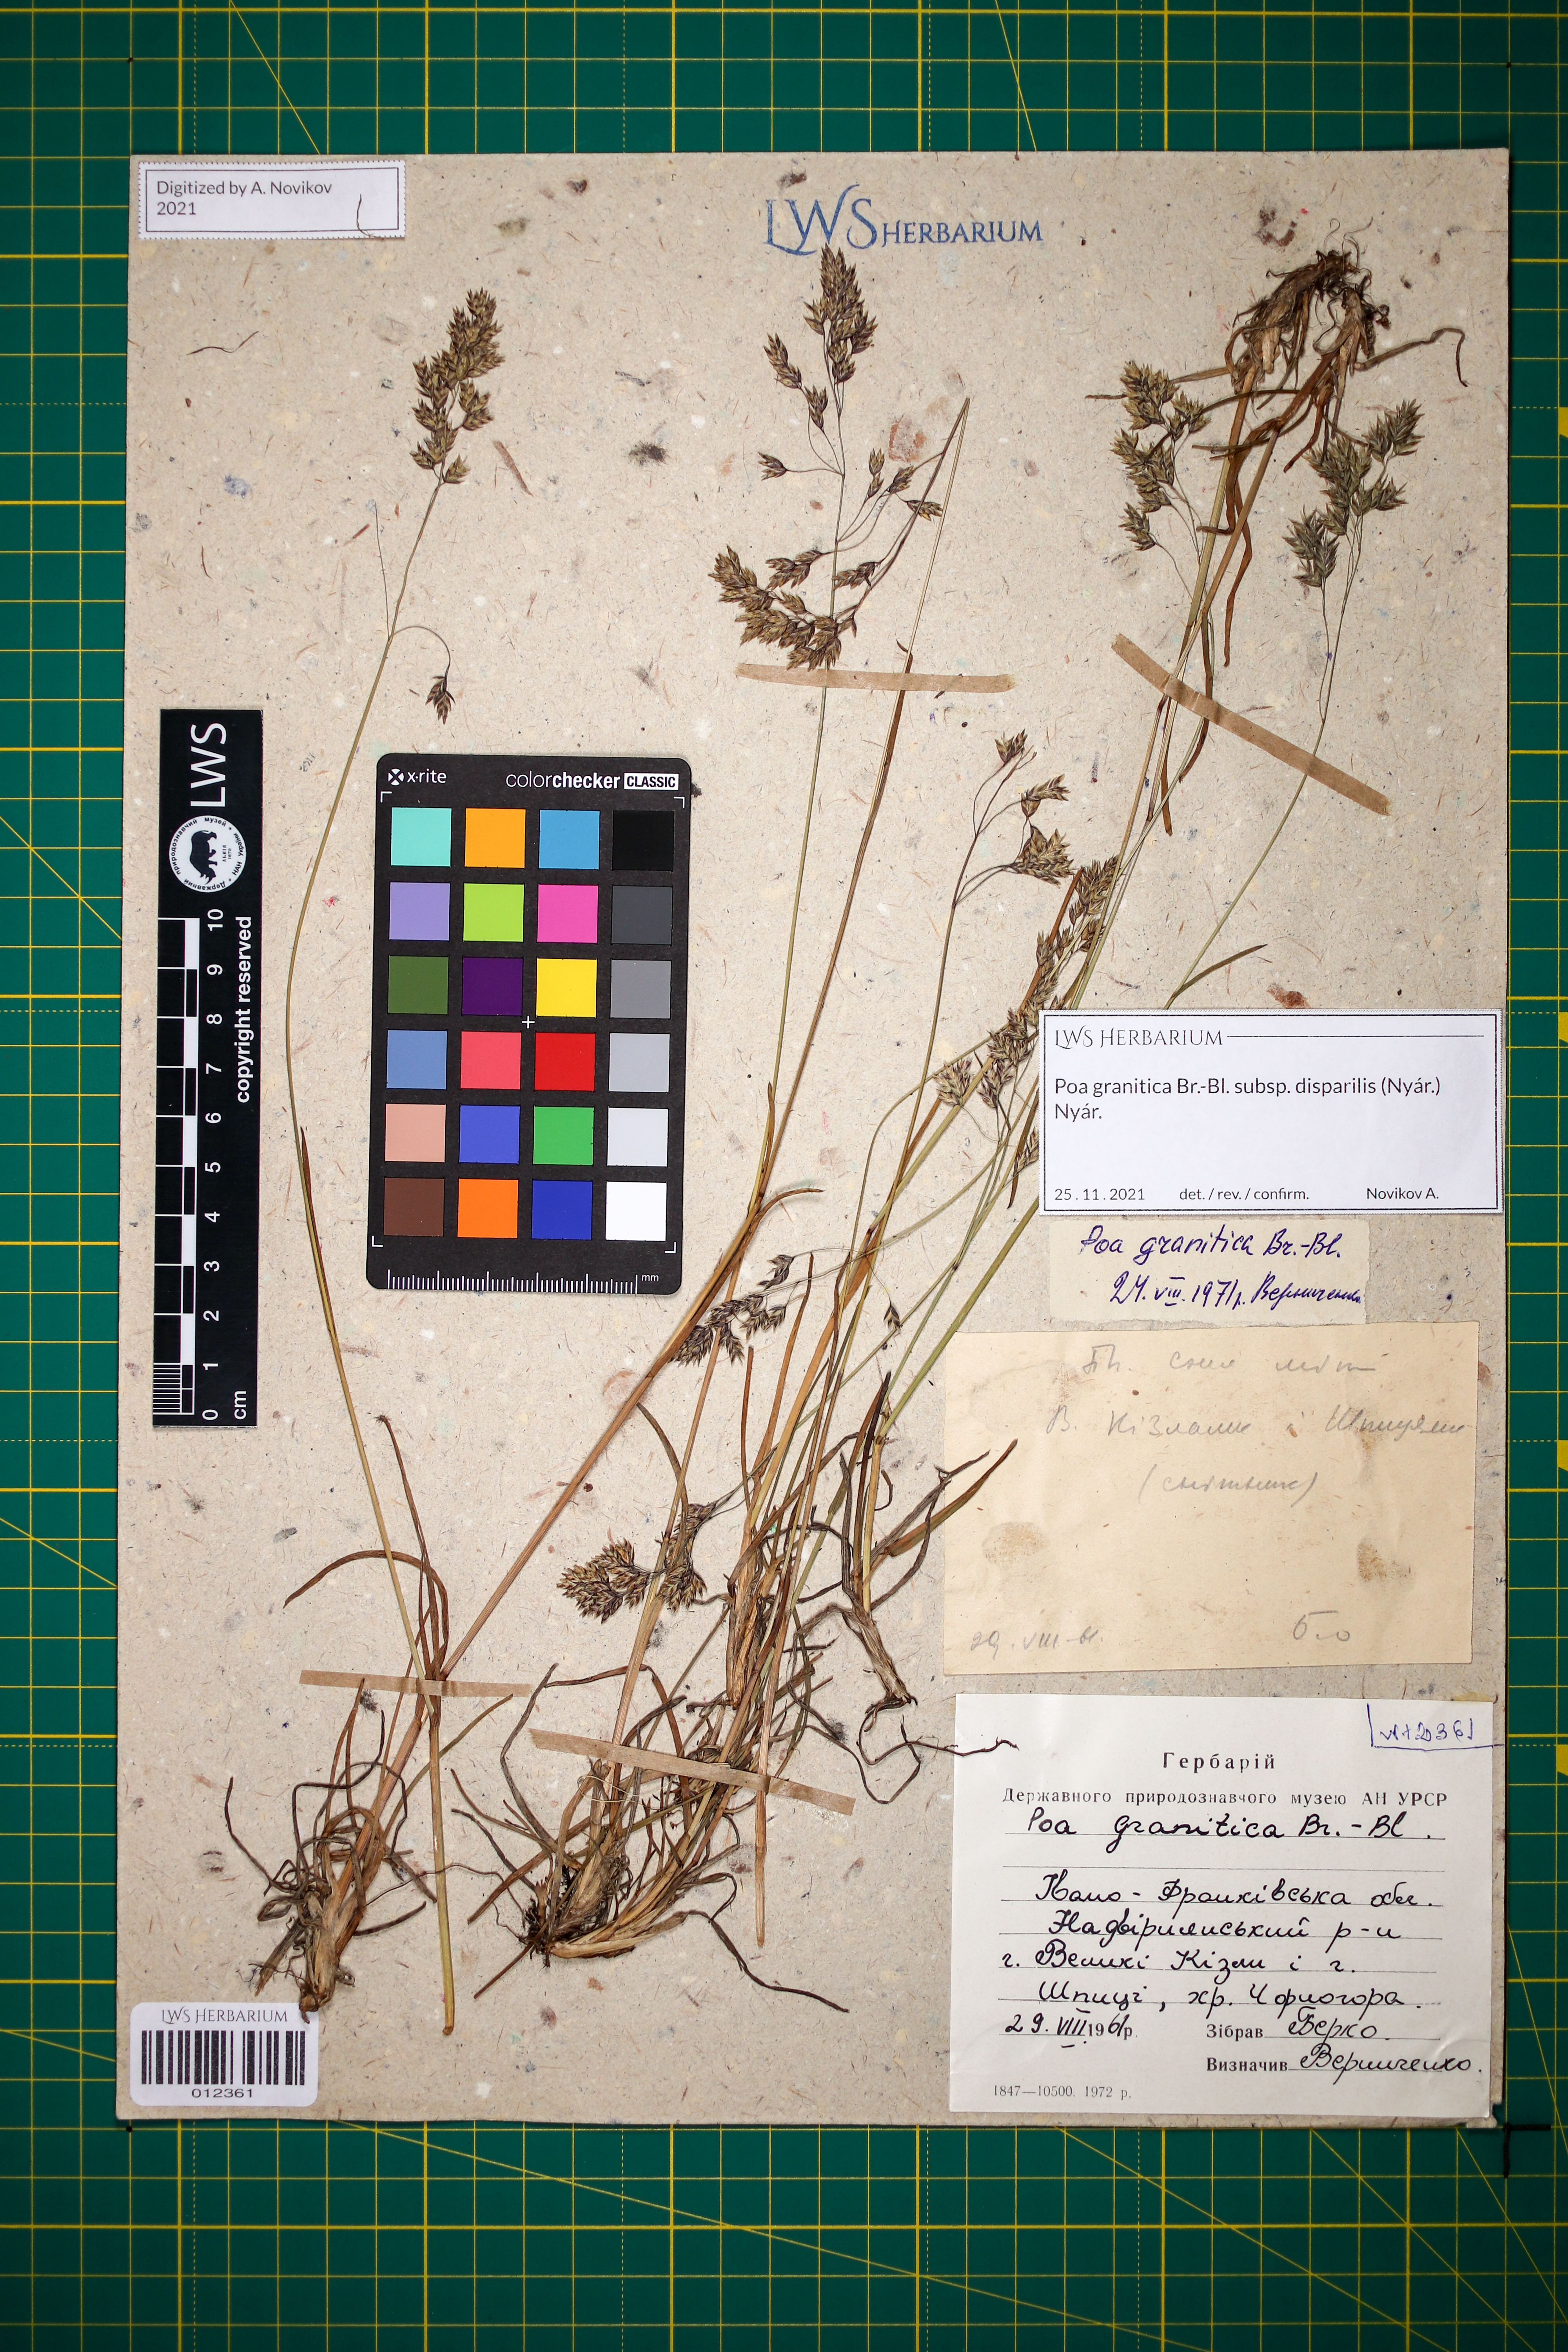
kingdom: Plantae
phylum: Tracheophyta
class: Liliopsida
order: Poales
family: Poaceae
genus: Poa
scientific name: Poa granitica
